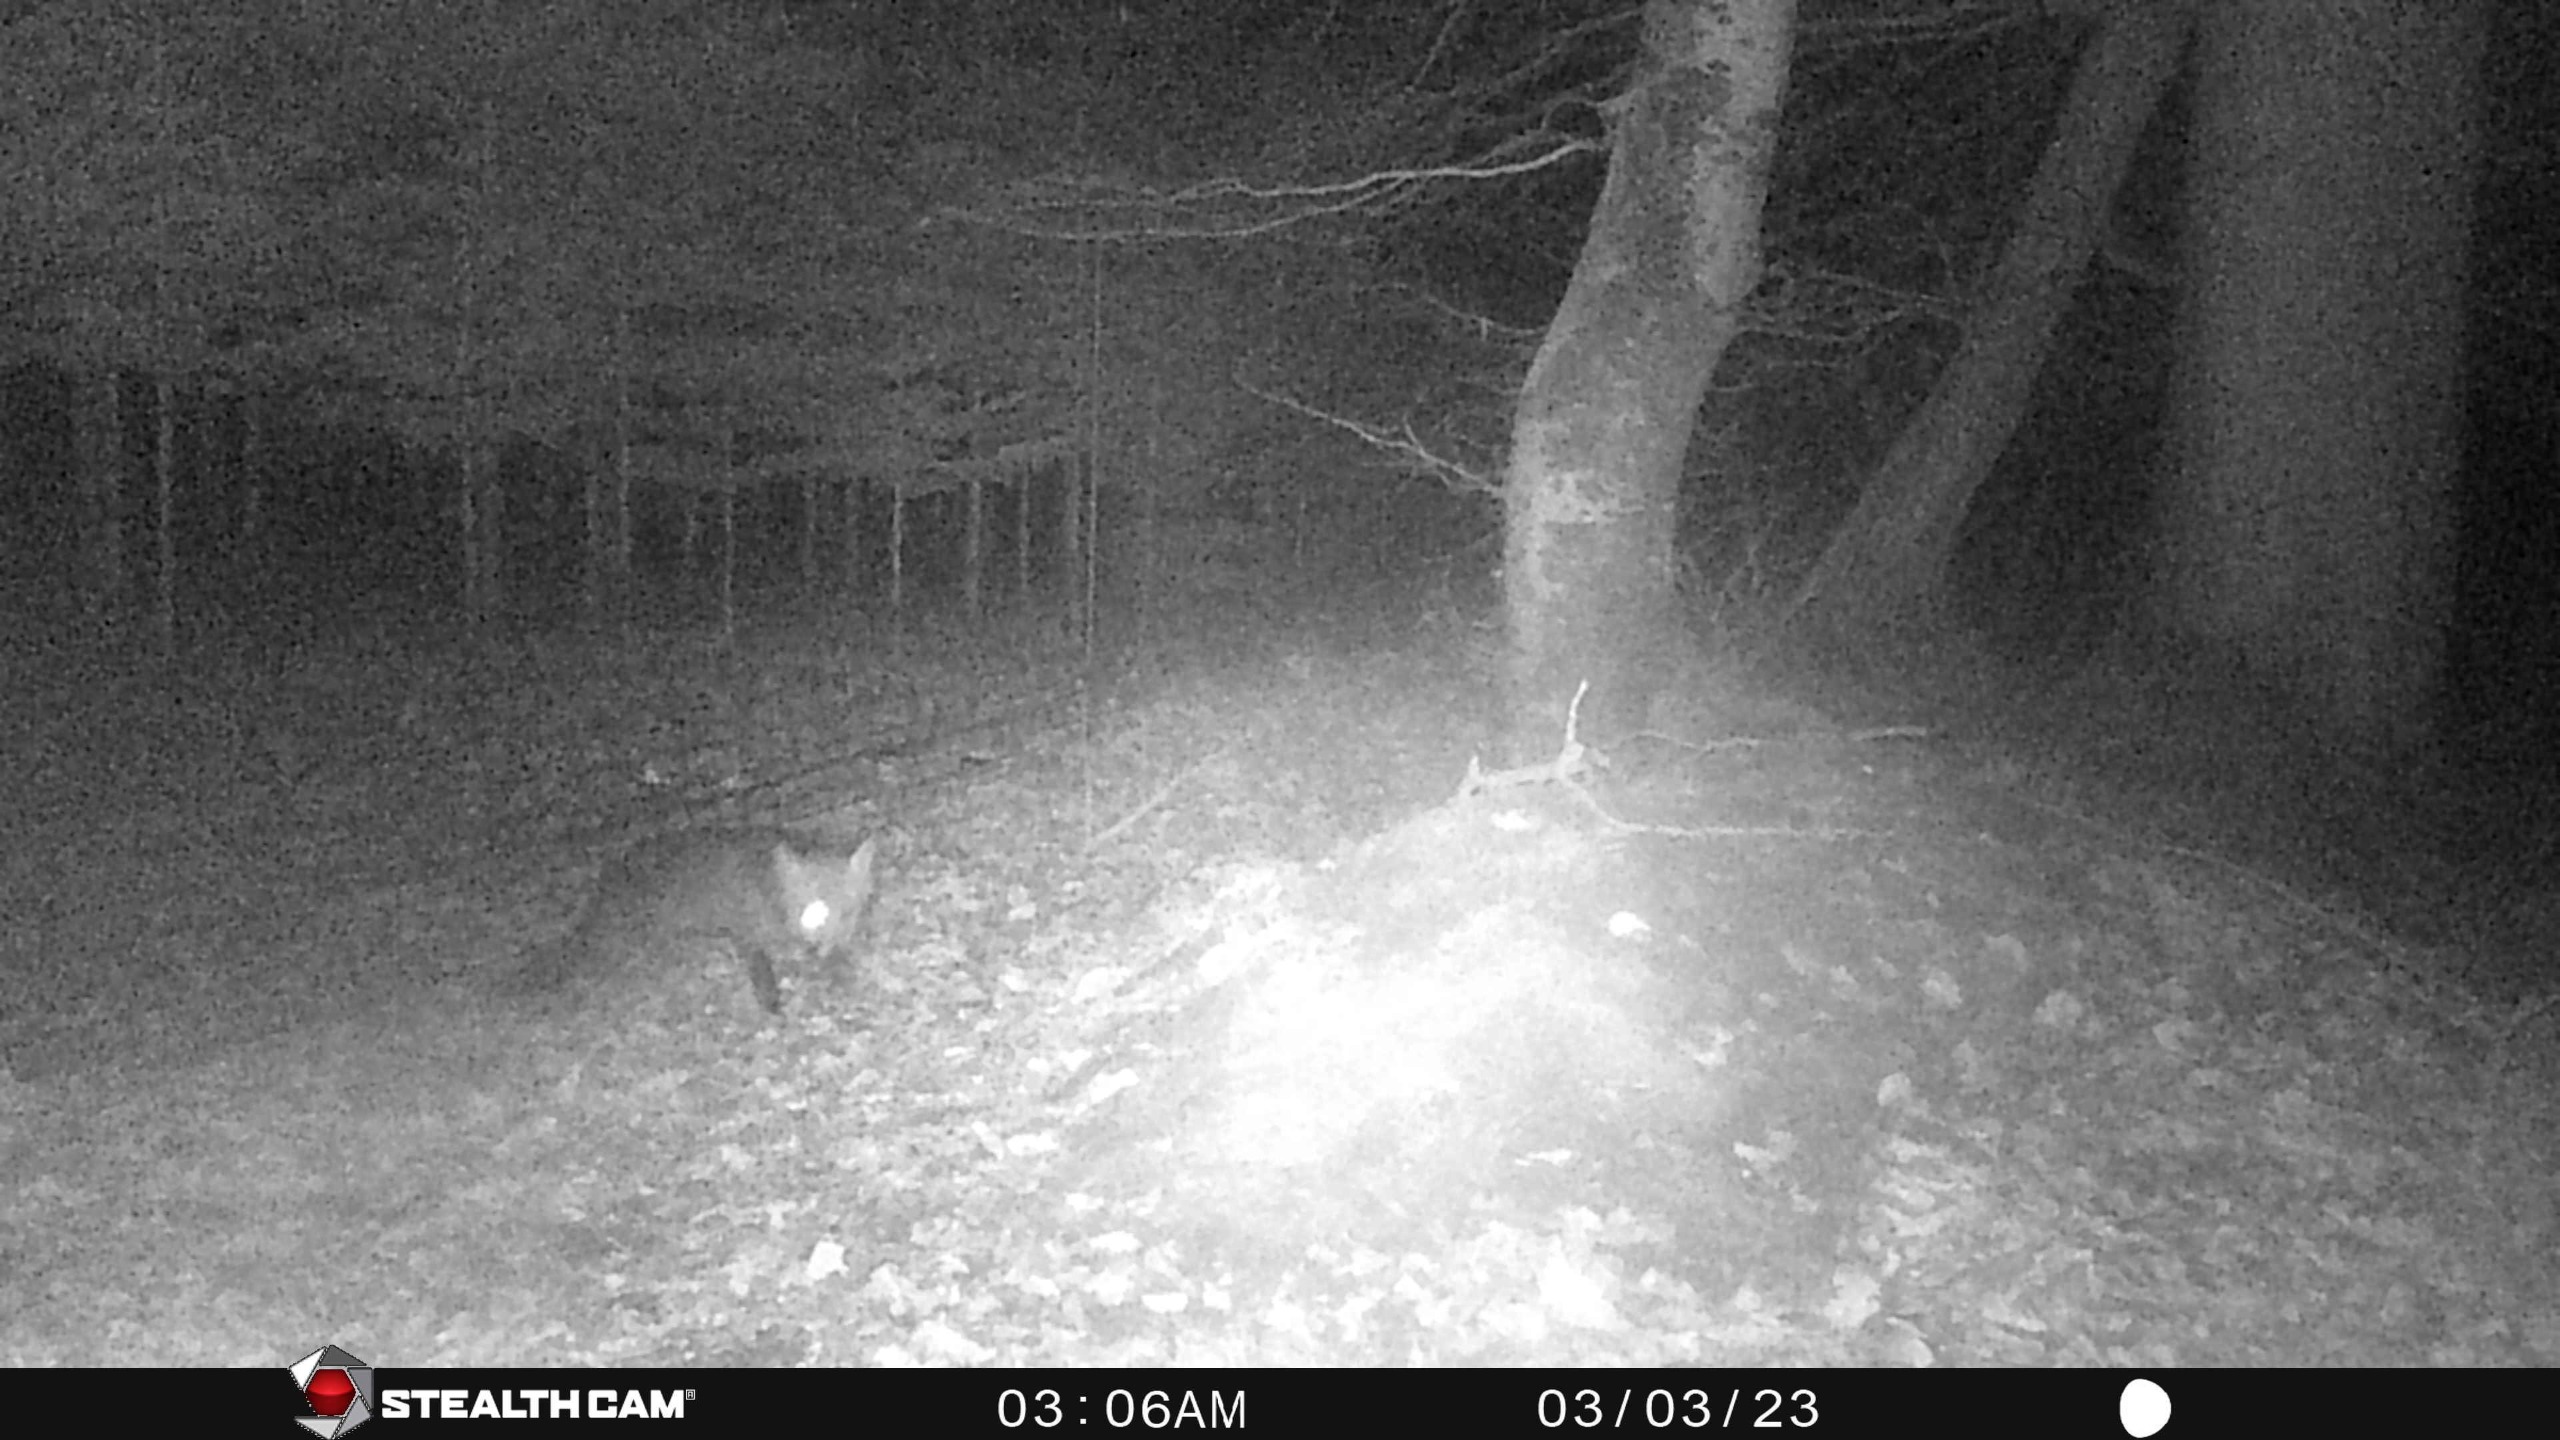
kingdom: Animalia
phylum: Chordata
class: Mammalia
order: Carnivora
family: Canidae
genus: Vulpes
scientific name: Vulpes vulpes
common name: Ræv
